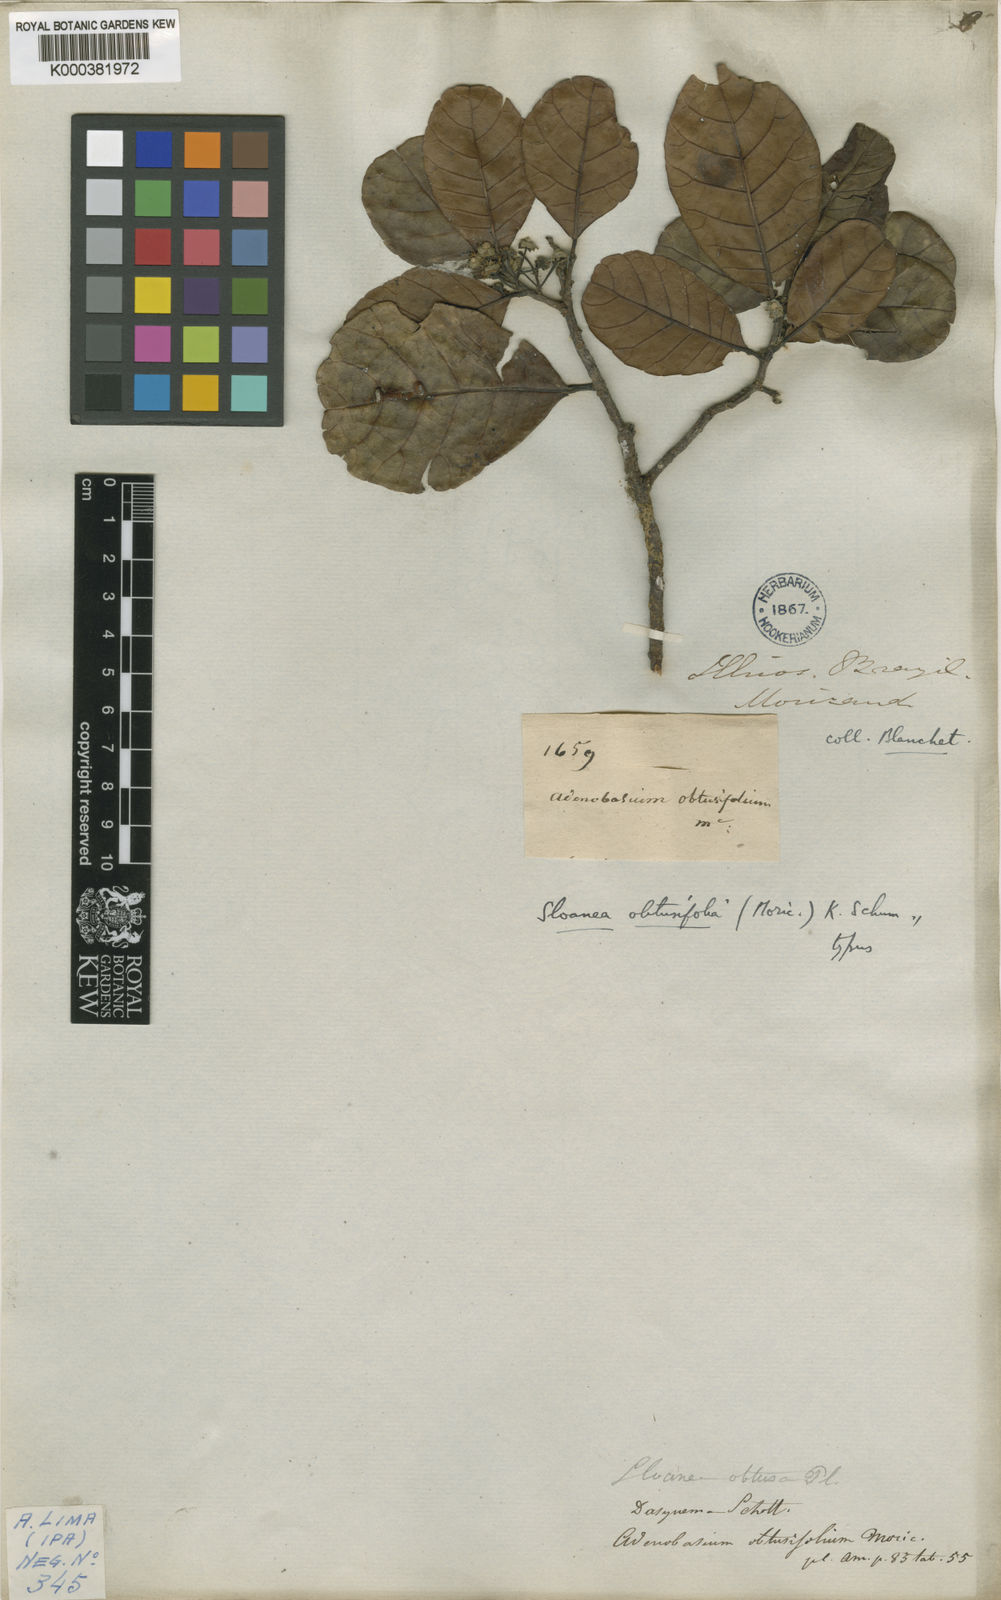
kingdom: Plantae
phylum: Tracheophyta
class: Magnoliopsida
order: Oxalidales
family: Elaeocarpaceae
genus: Sloanea
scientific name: Sloanea obtusifolia
